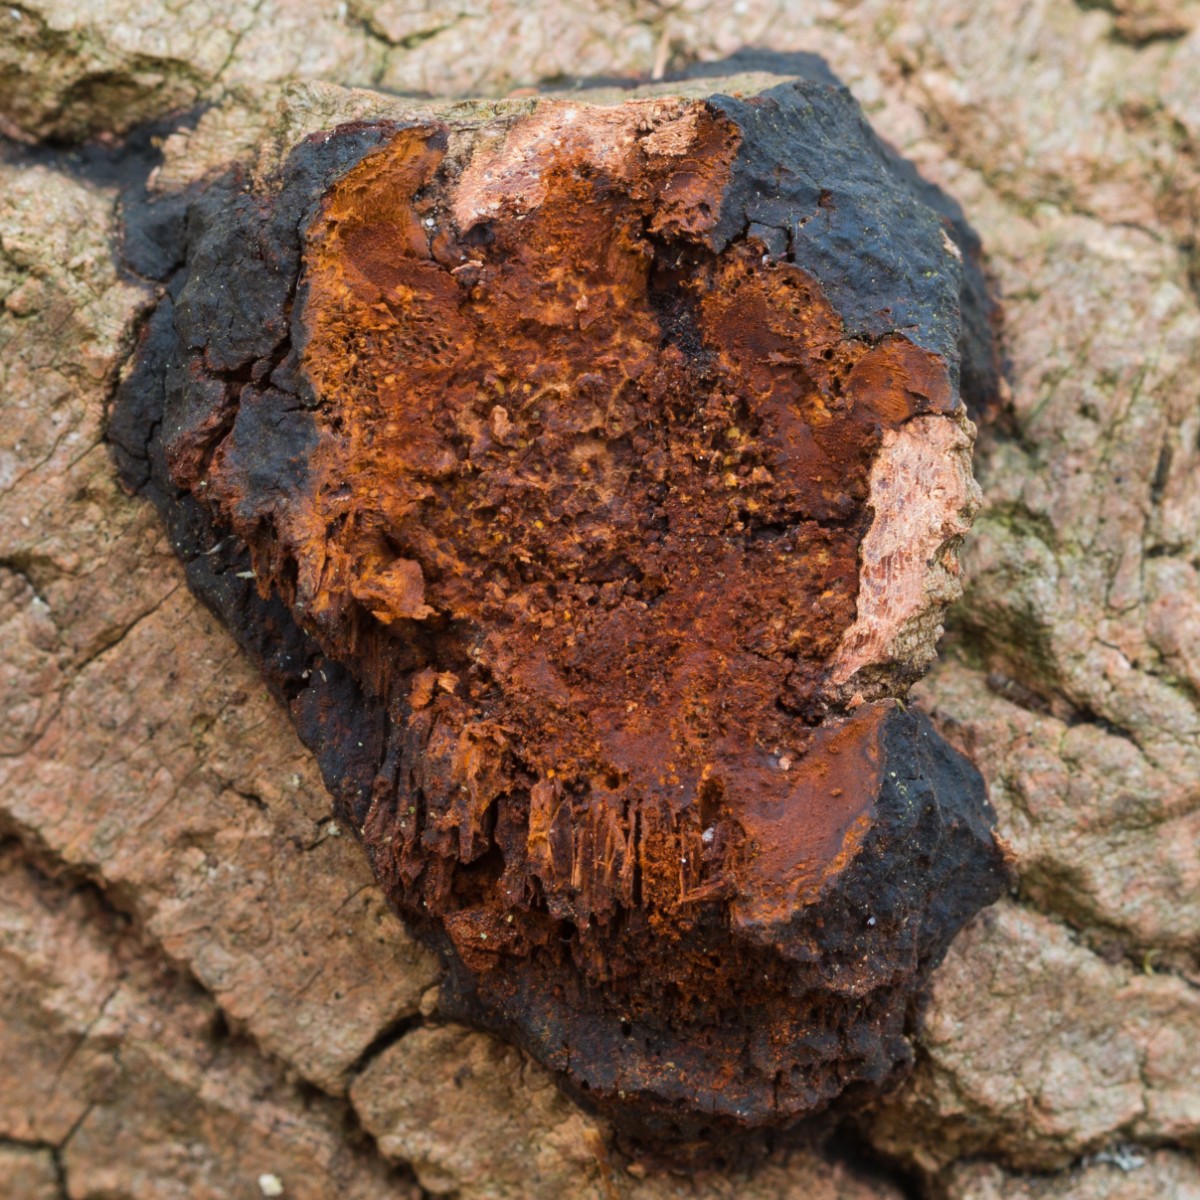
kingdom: Fungi
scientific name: Fungi
